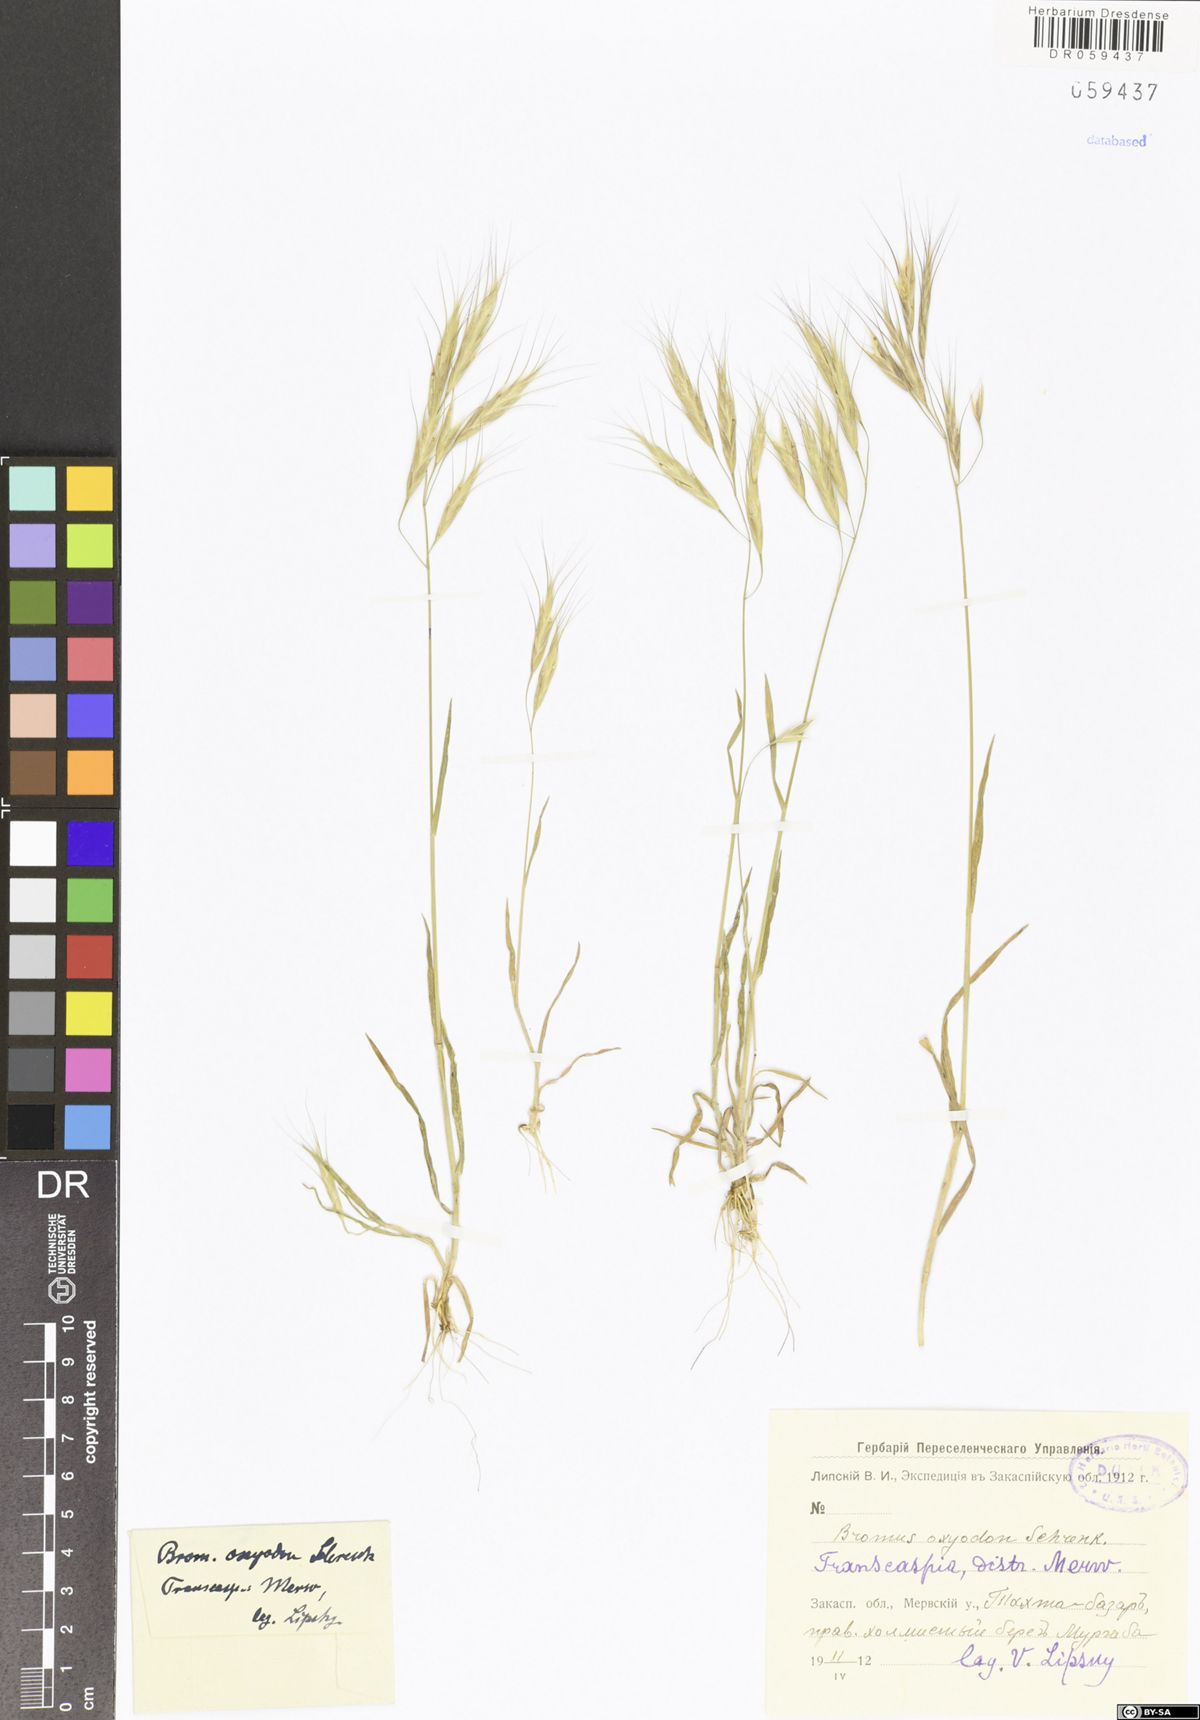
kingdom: Plantae
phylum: Tracheophyta
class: Liliopsida
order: Poales
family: Poaceae
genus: Bromus
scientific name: Bromus oxyodon
